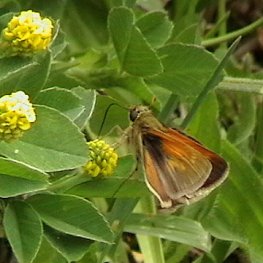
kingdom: Animalia
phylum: Arthropoda
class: Insecta
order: Lepidoptera
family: Hesperiidae
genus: Polites
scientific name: Polites themistocles
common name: Tawny-edged Skipper
